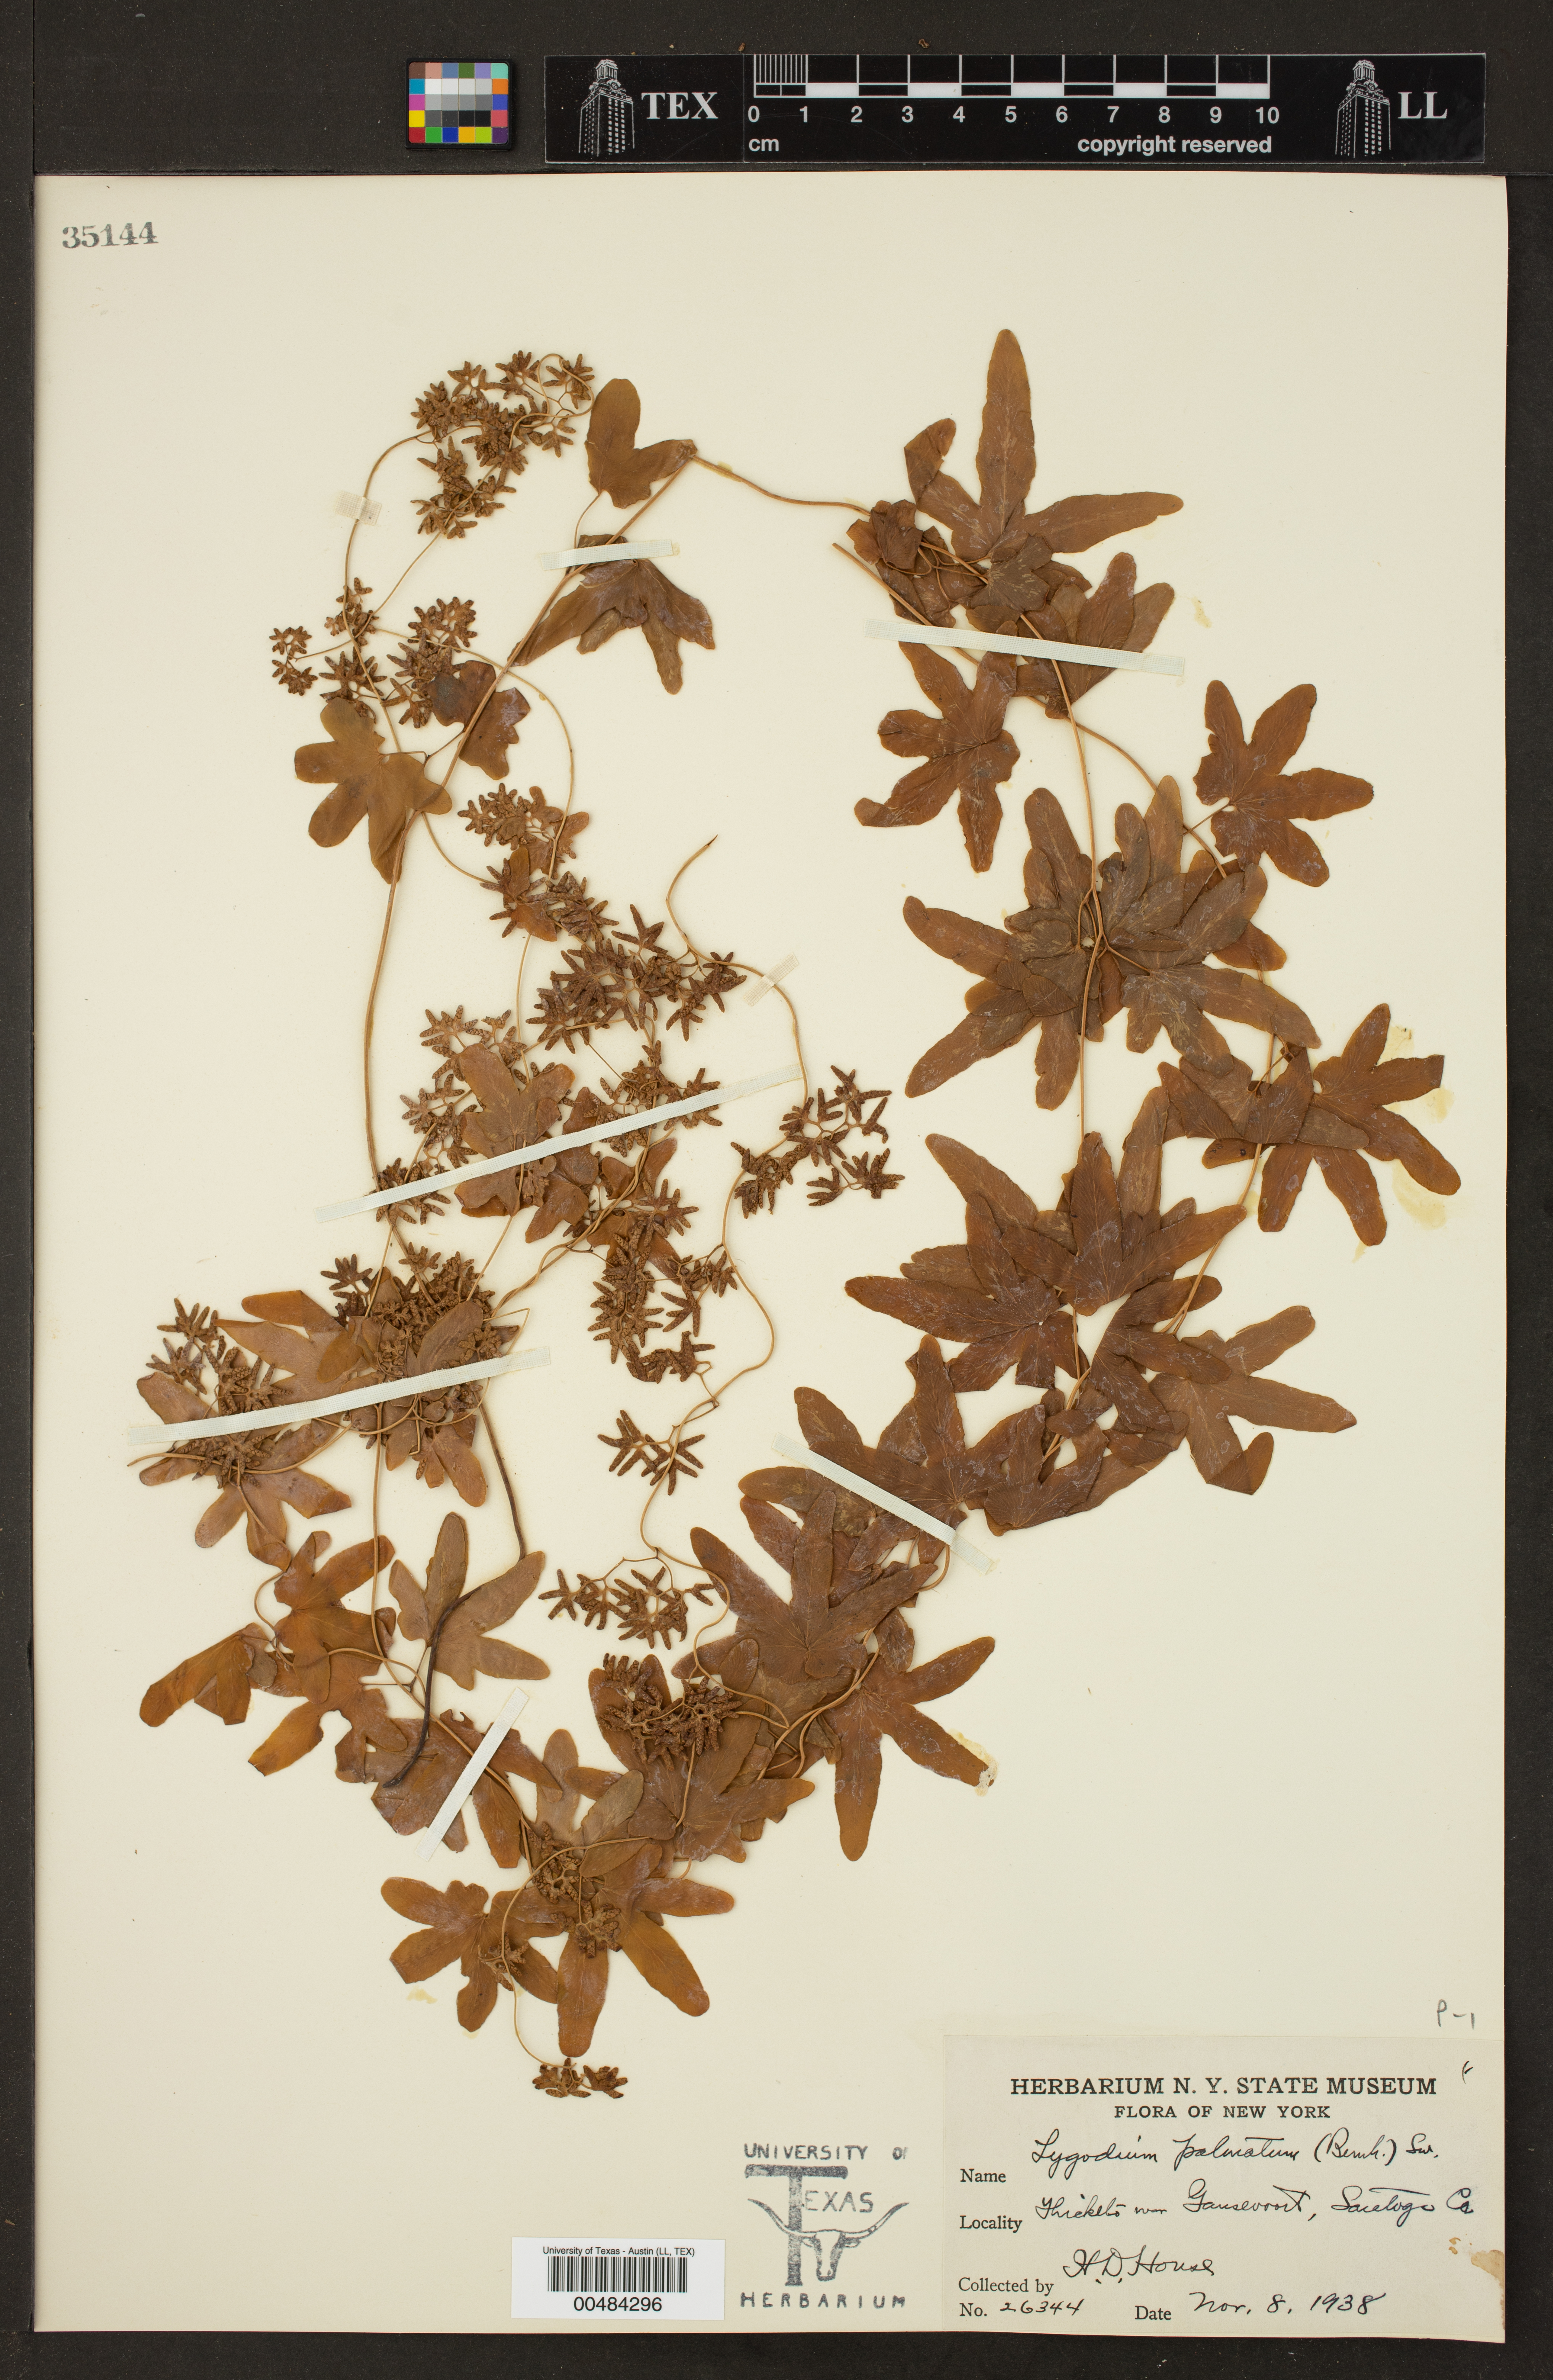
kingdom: Plantae
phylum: Tracheophyta
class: Polypodiopsida
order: Schizaeales
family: Lygodiaceae
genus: Lygodium
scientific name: Lygodium palmatum
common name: American climbing fern
